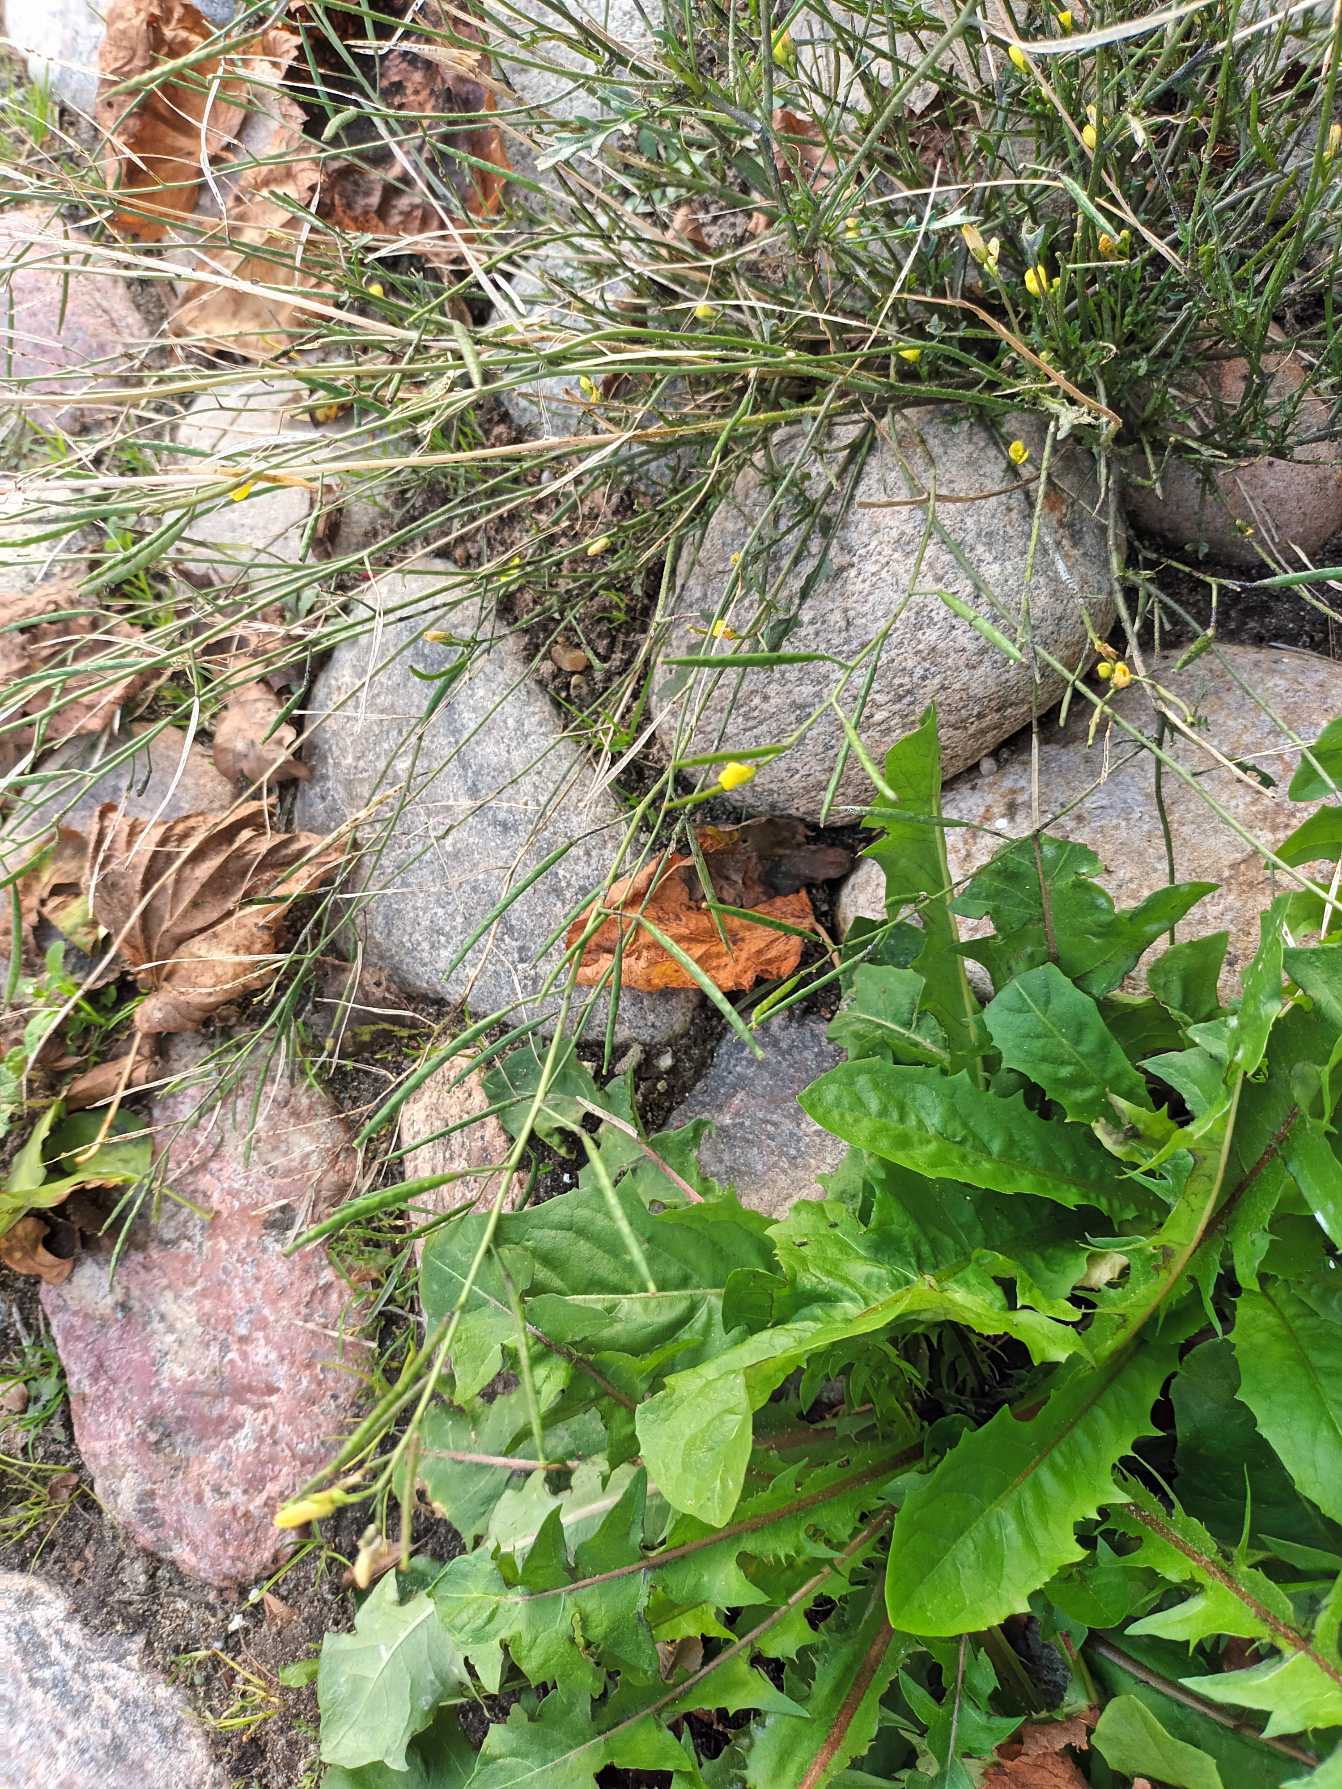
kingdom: Plantae
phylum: Tracheophyta
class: Magnoliopsida
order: Brassicales
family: Brassicaceae
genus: Diplotaxis
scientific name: Diplotaxis muralis
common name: Mursennep
